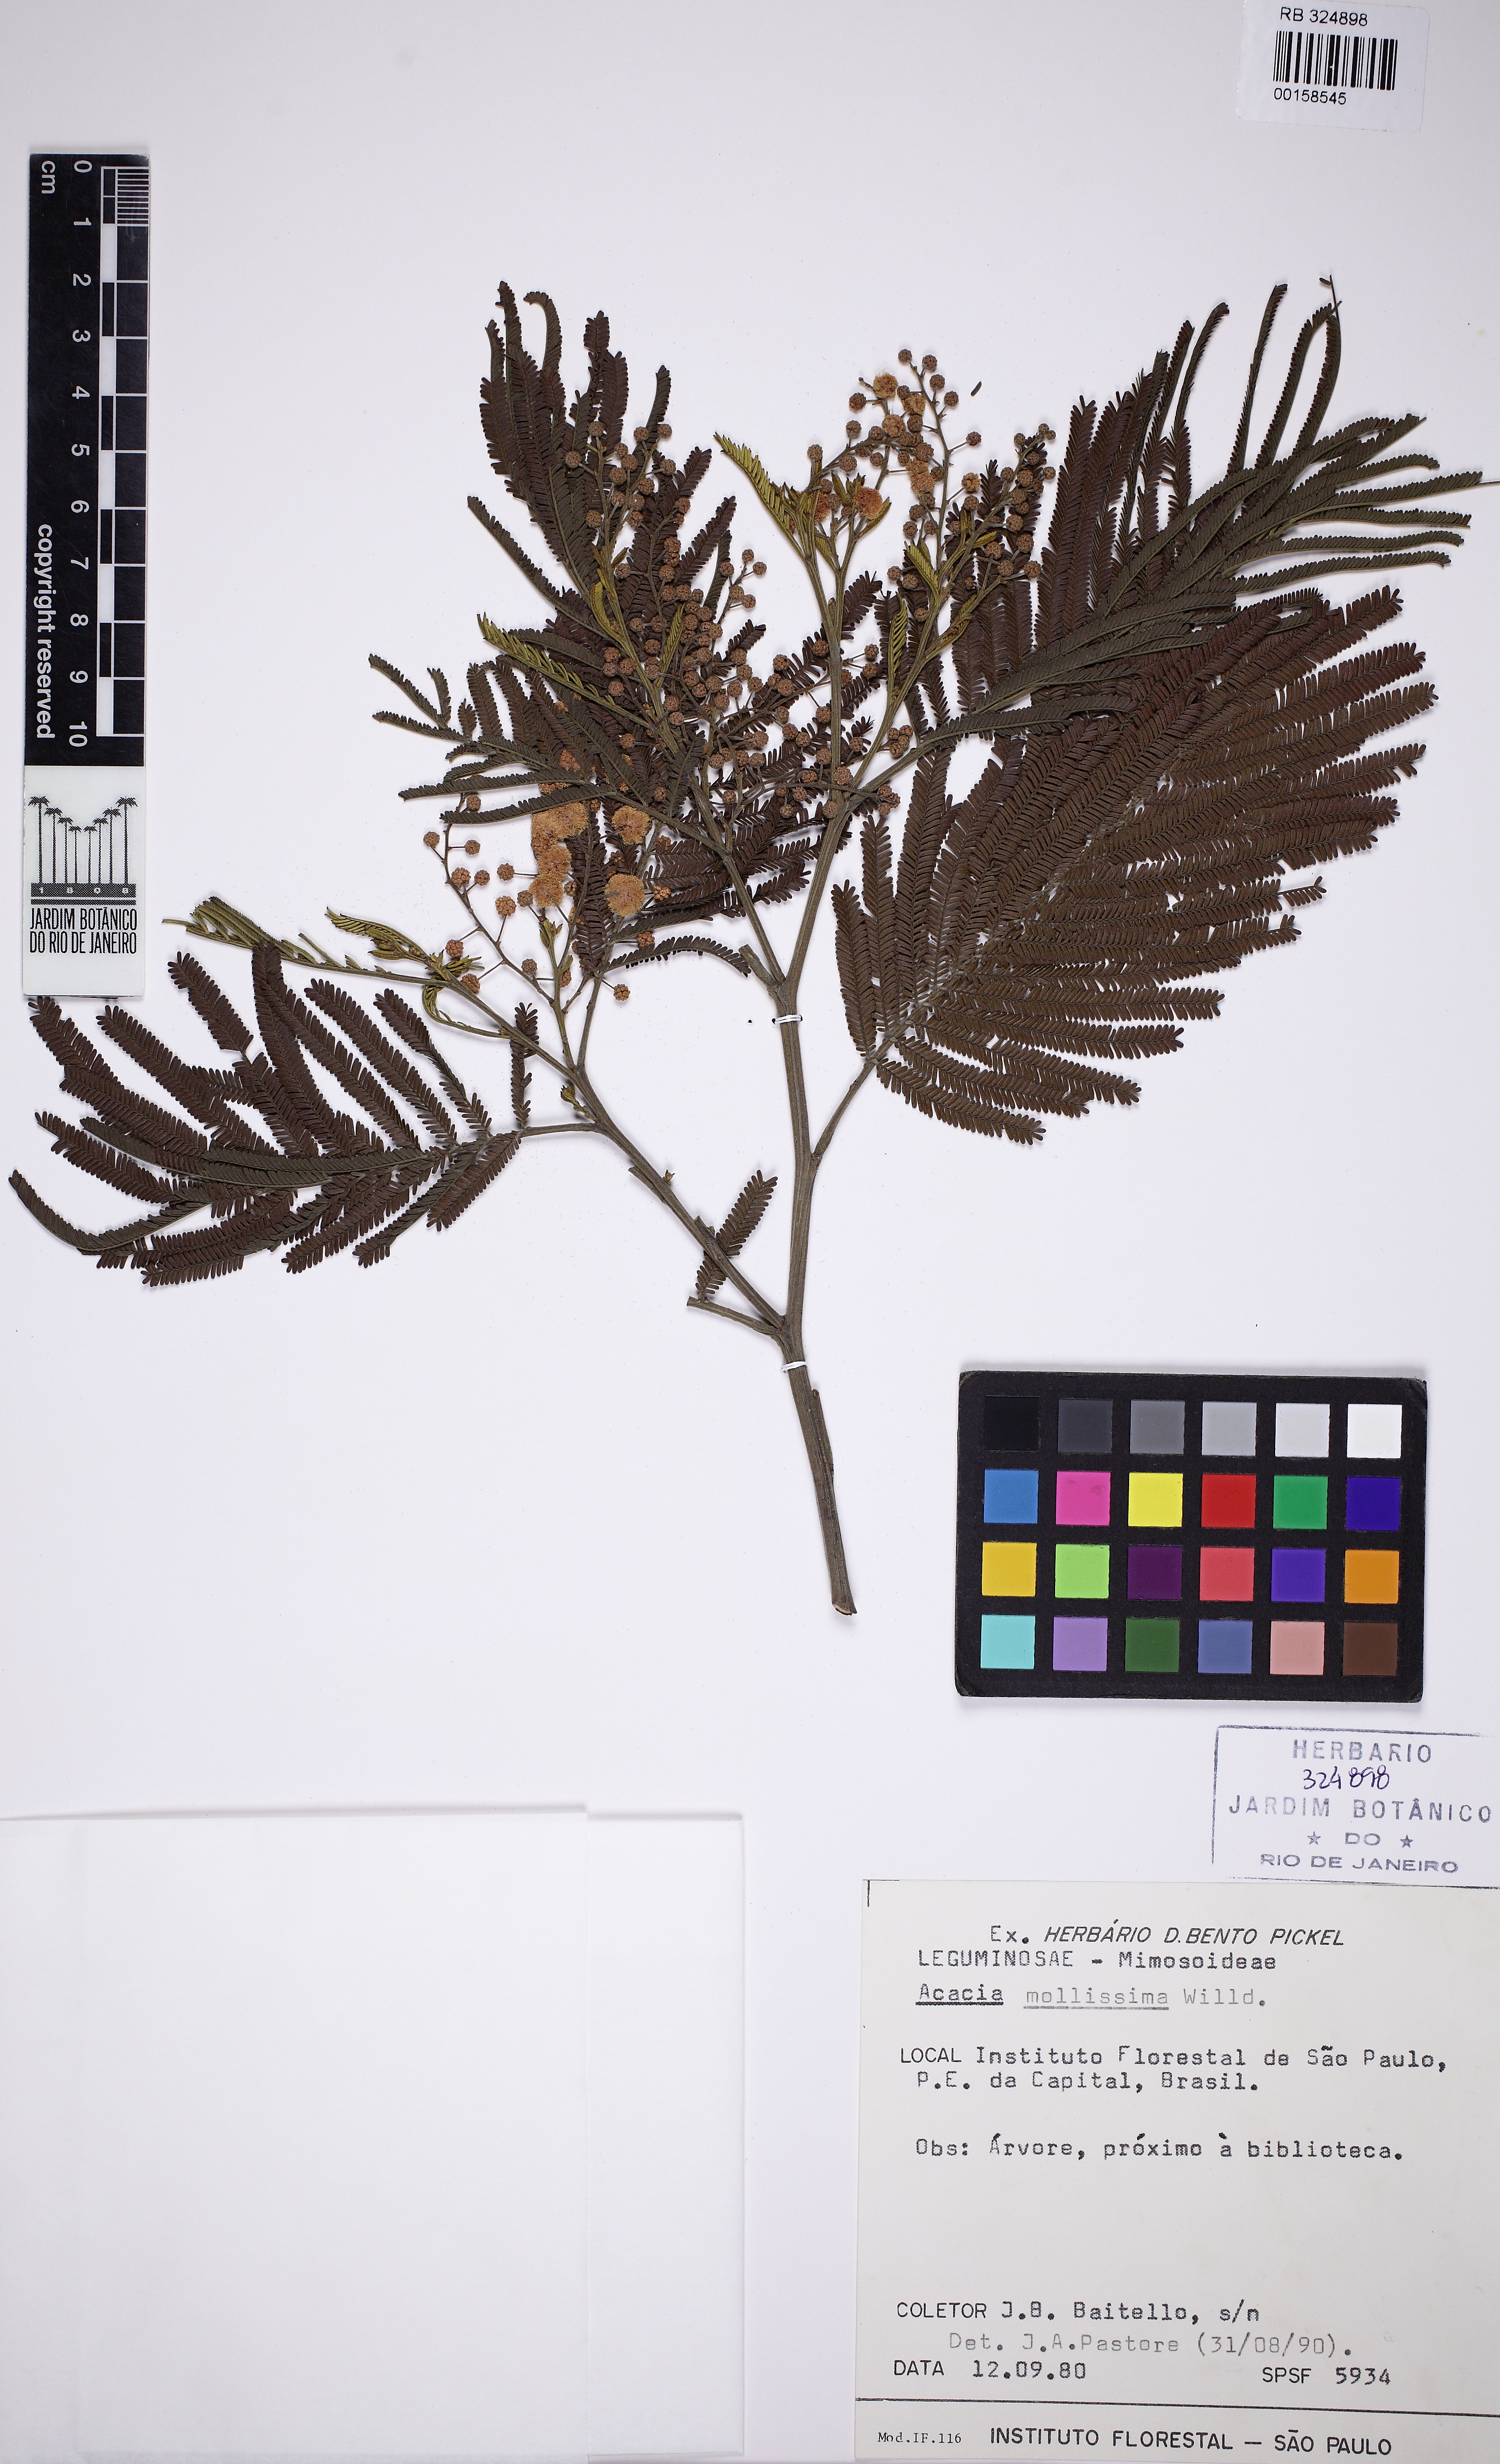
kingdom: Plantae
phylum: Tracheophyta
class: Magnoliopsida
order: Fabales
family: Fabaceae
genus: Acacia
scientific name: Acacia pubescens
